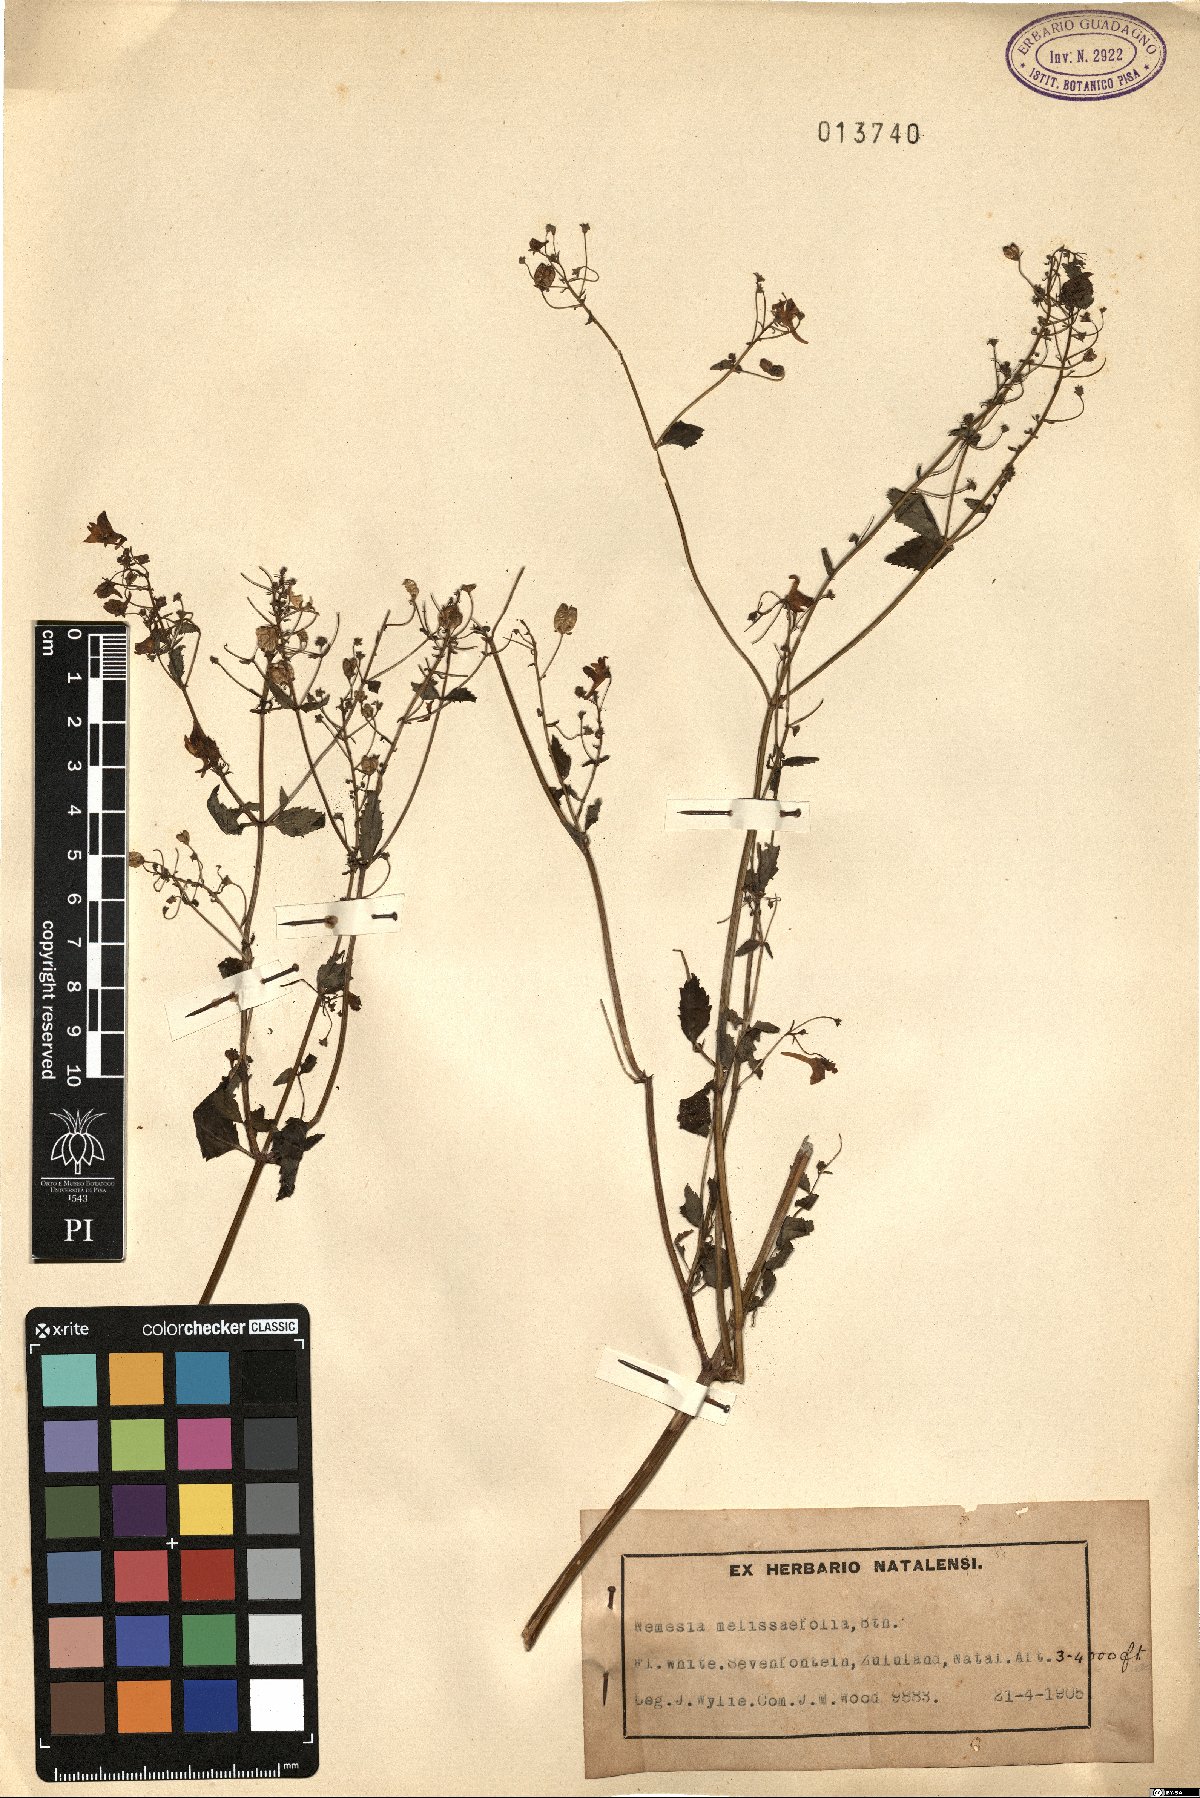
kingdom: Plantae
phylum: Tracheophyta
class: Magnoliopsida
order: Lamiales
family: Scrophulariaceae
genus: Nemesia
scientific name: Nemesia melissifolia
